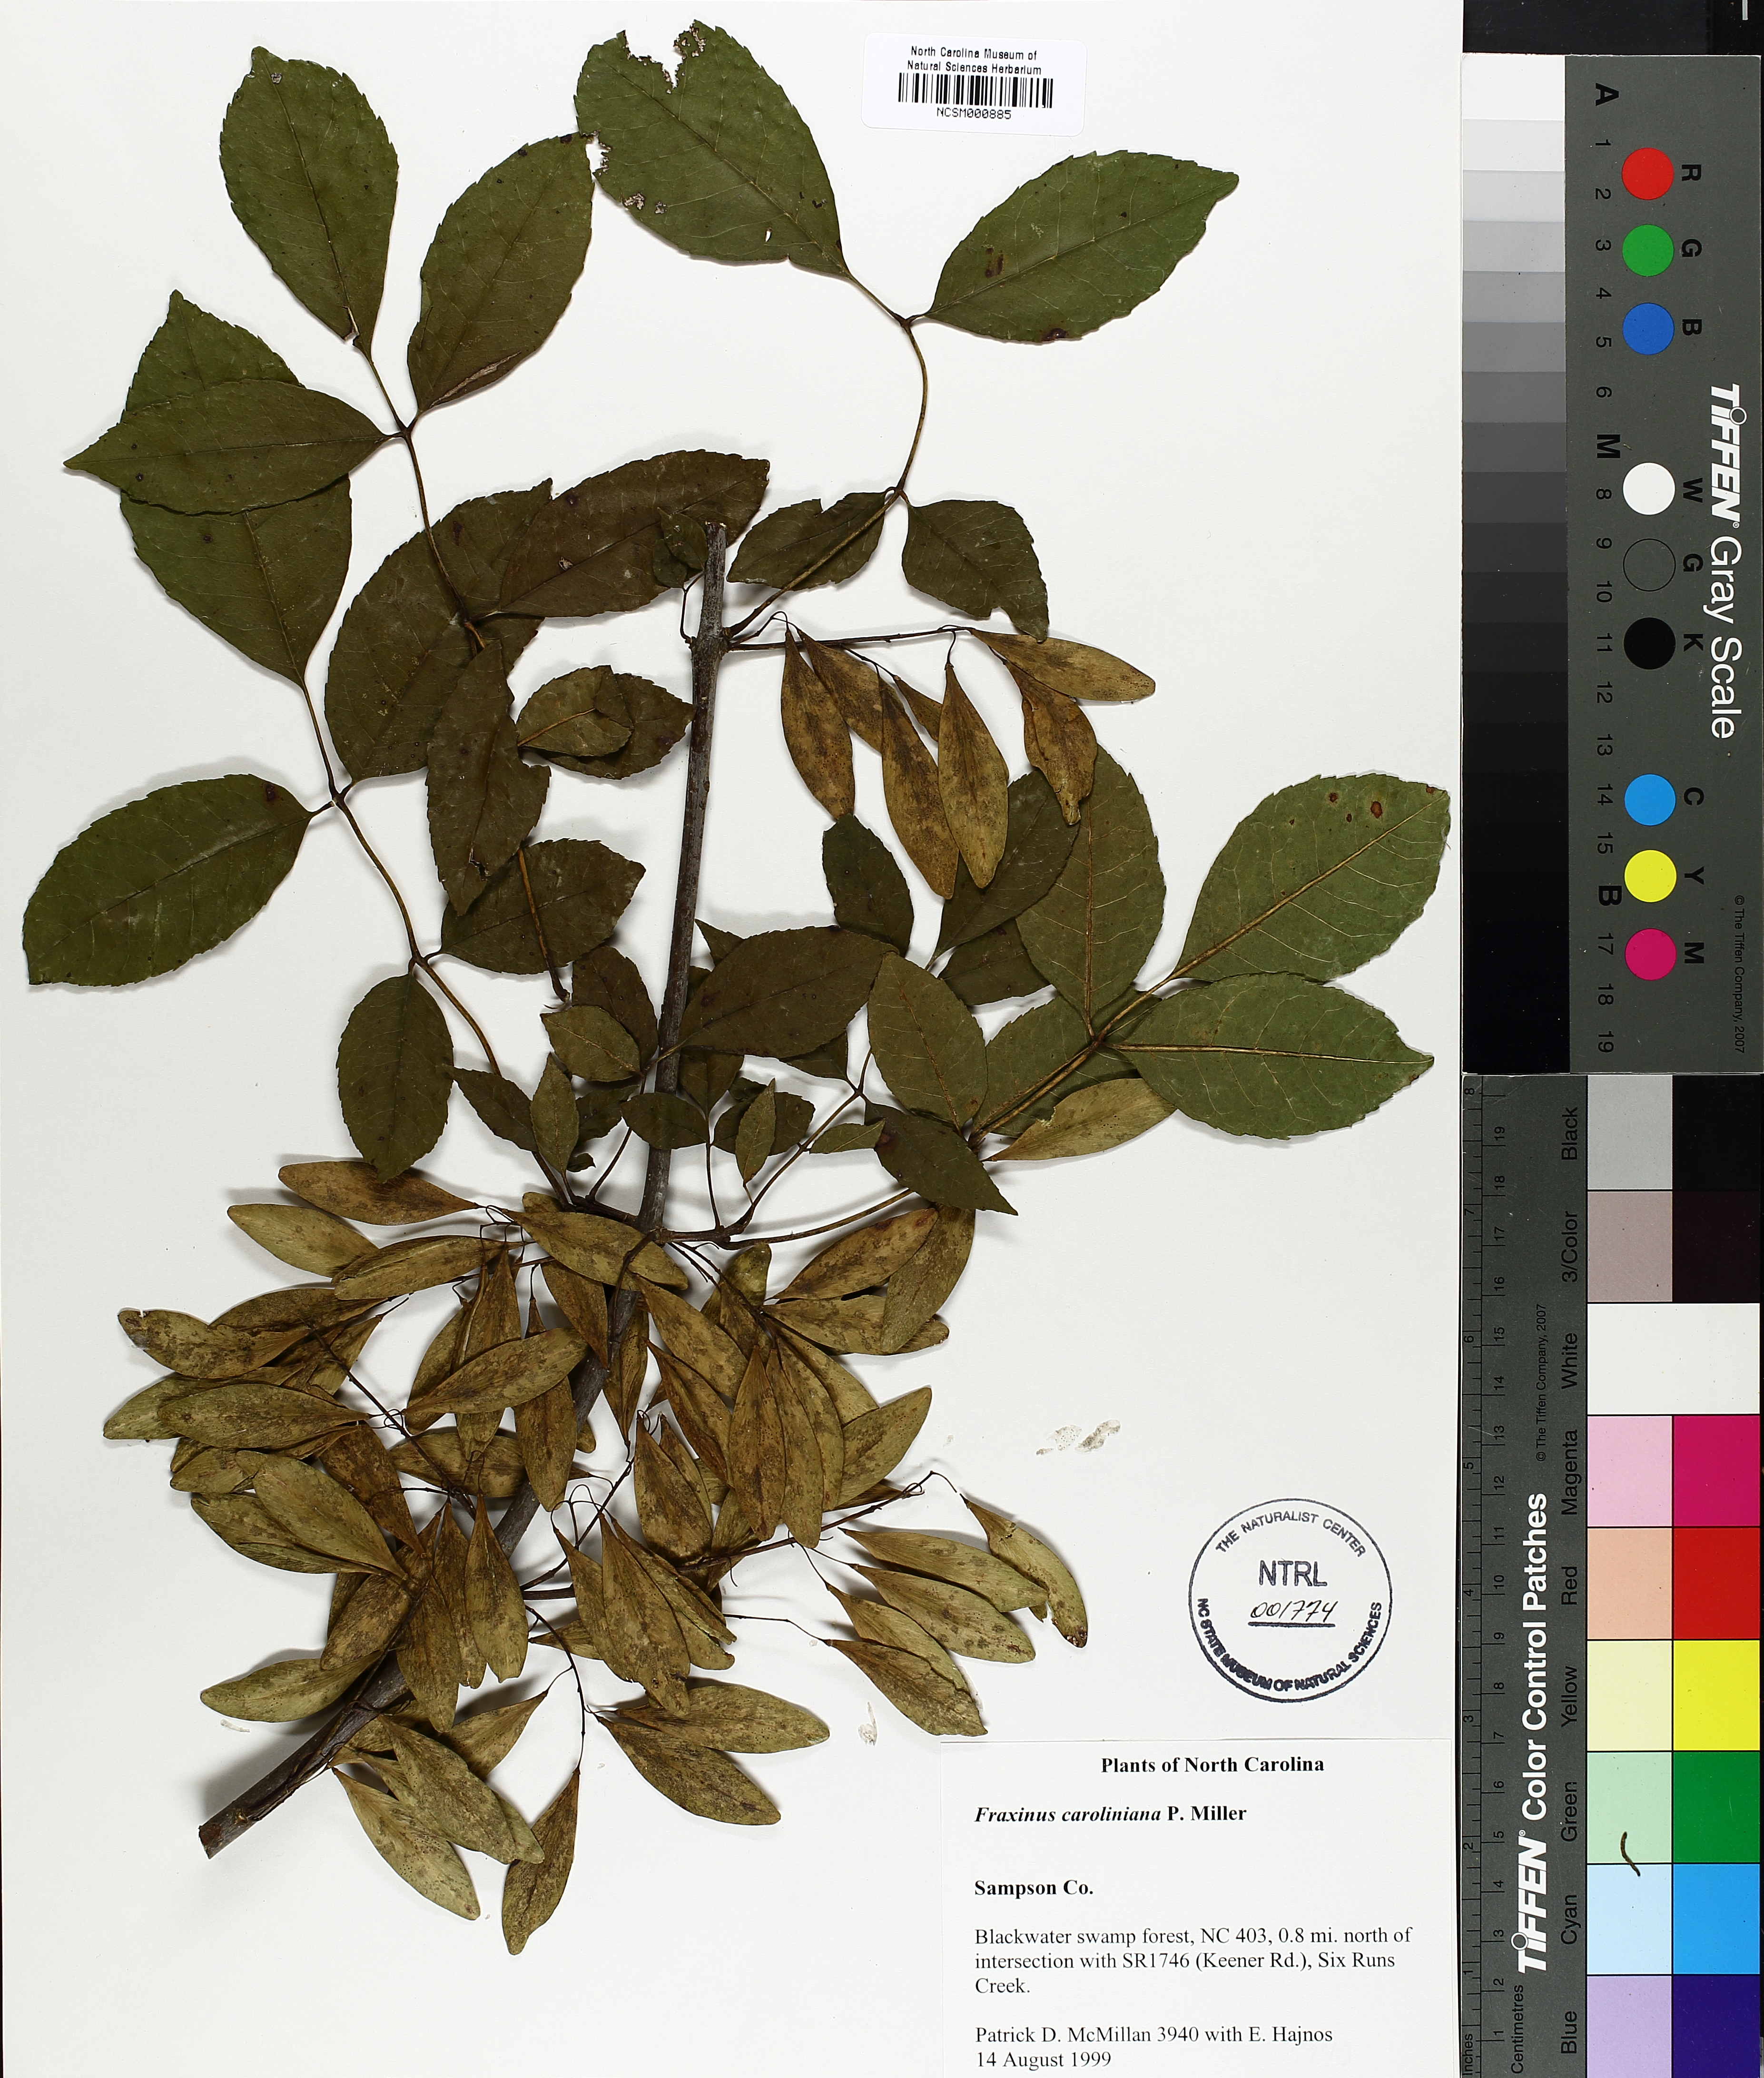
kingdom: Plantae
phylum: Tracheophyta
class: Magnoliopsida
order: Lamiales
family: Oleaceae
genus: Fraxinus
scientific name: Fraxinus caroliniana
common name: Carolina ash
